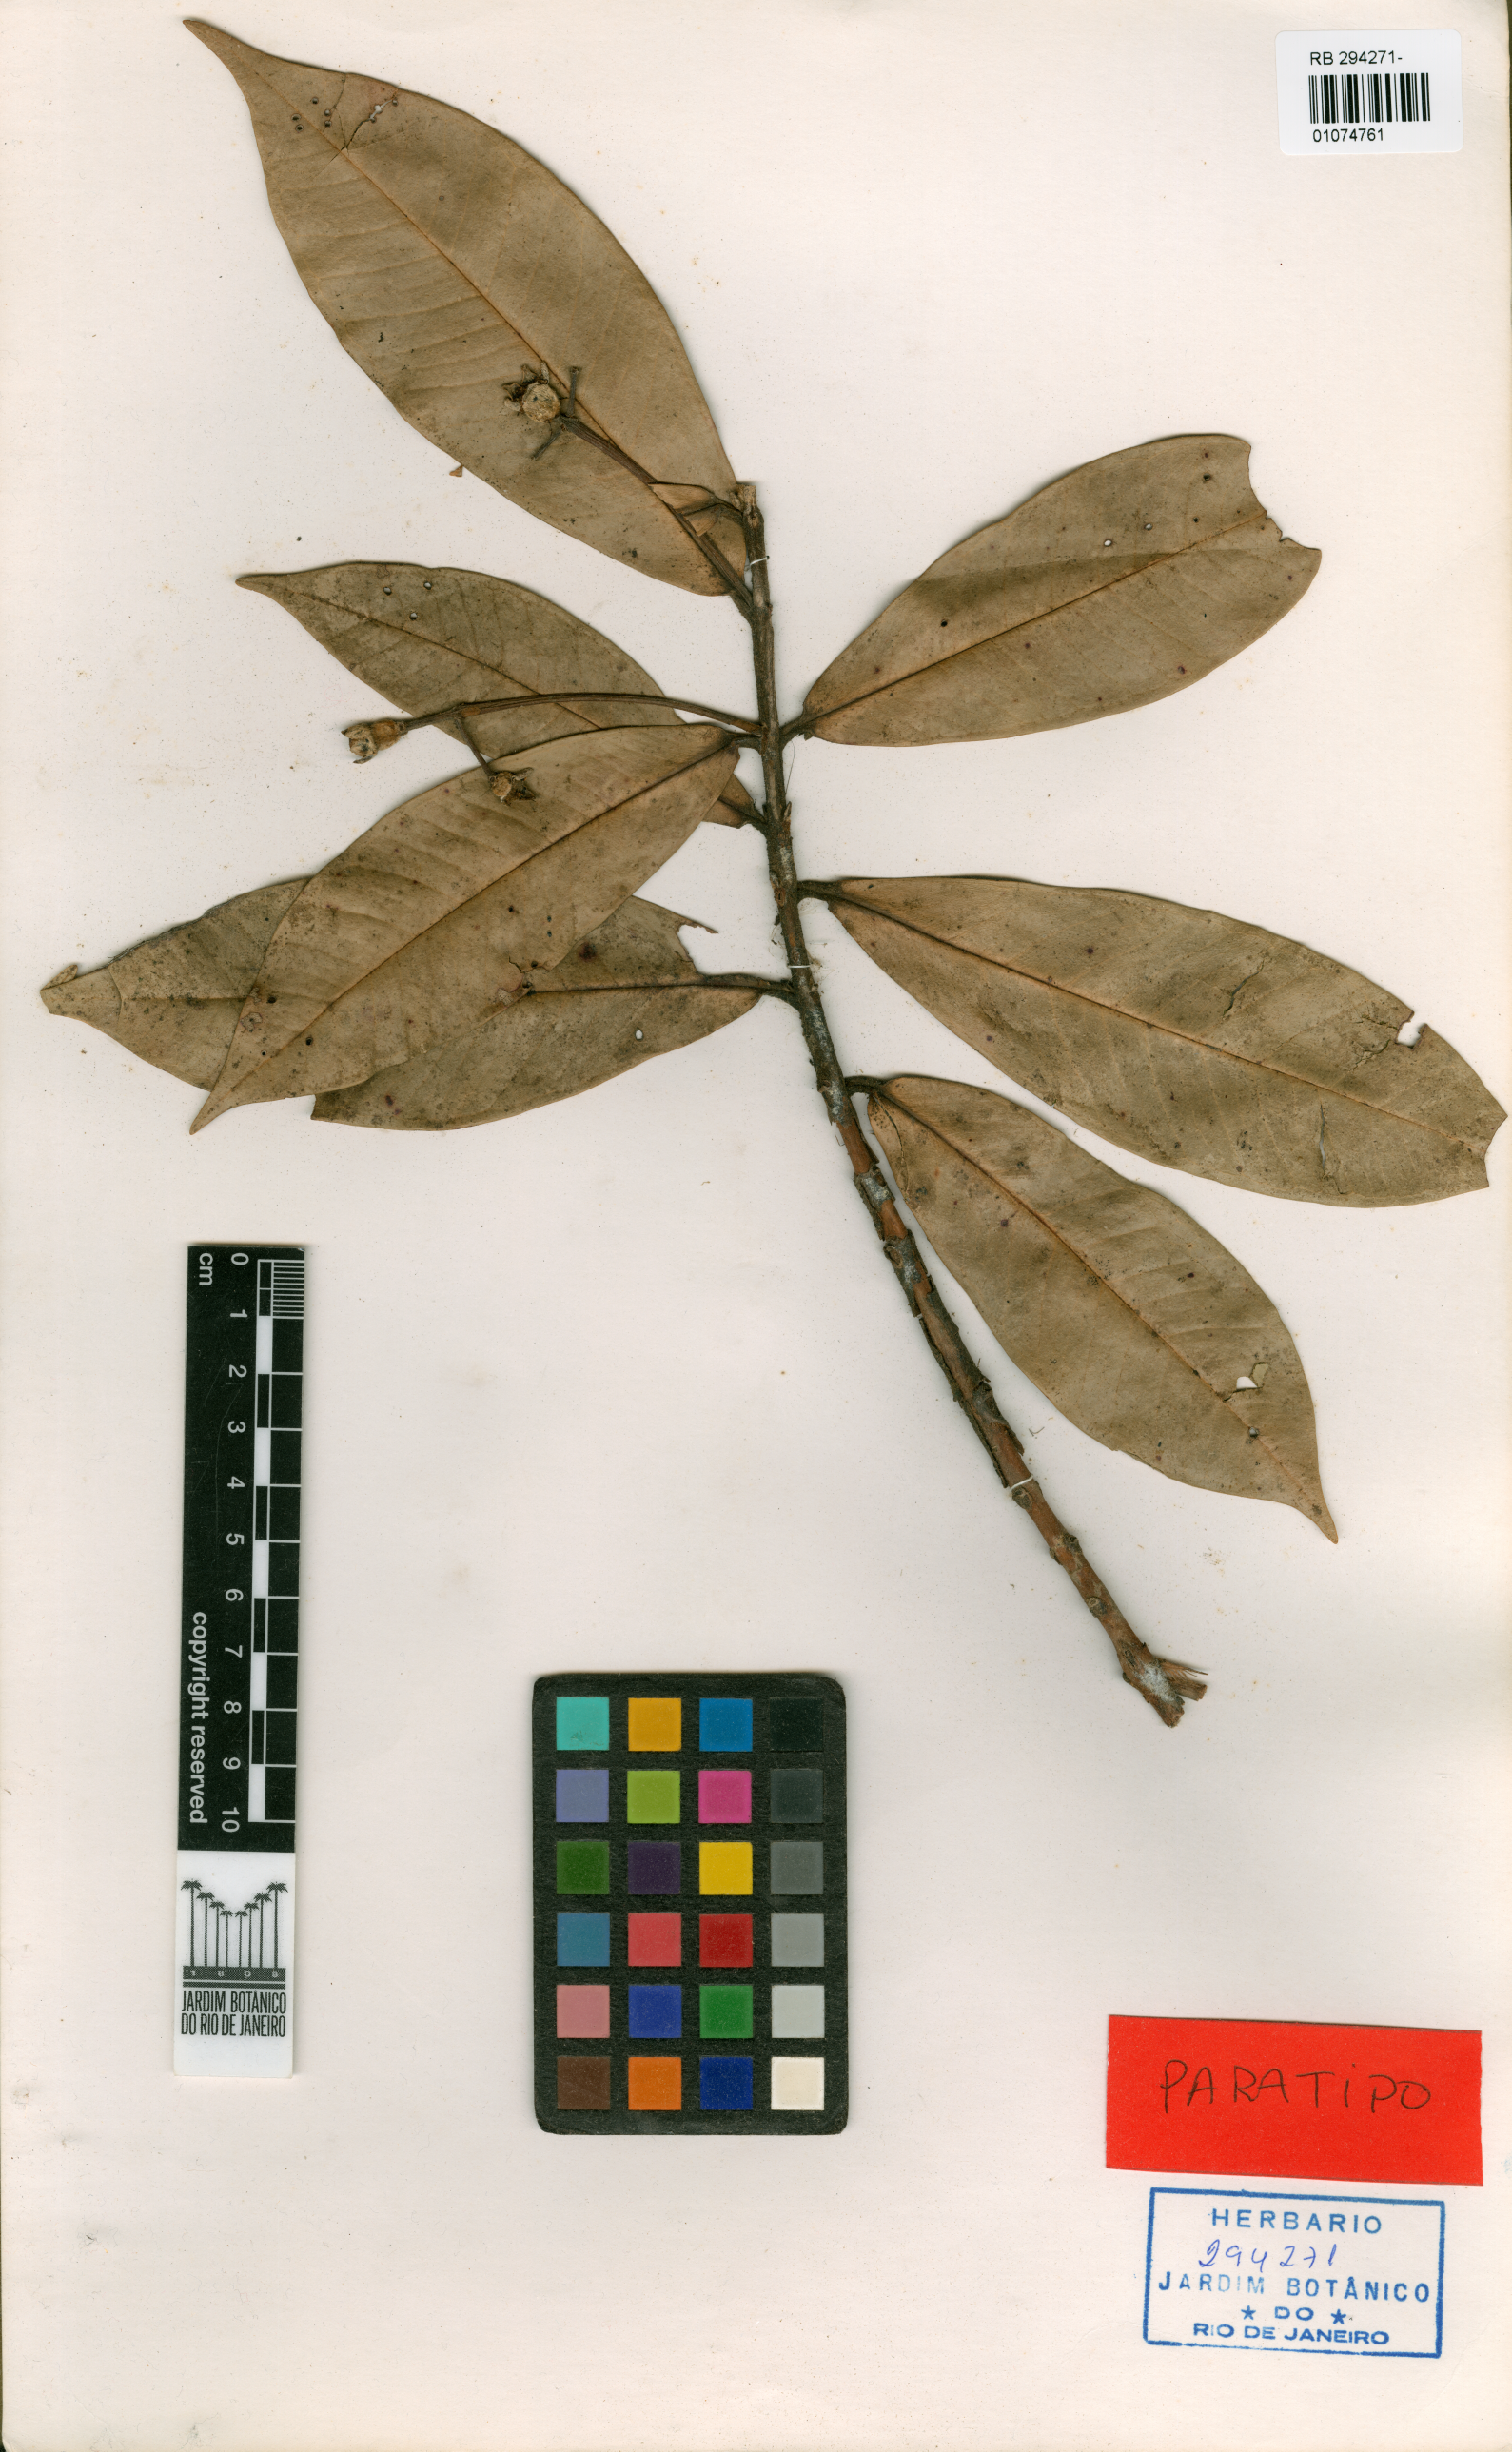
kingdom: Plantae
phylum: Tracheophyta
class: Magnoliopsida
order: Myrtales
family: Myrtaceae
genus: Myrcia
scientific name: Myrcia exapata
